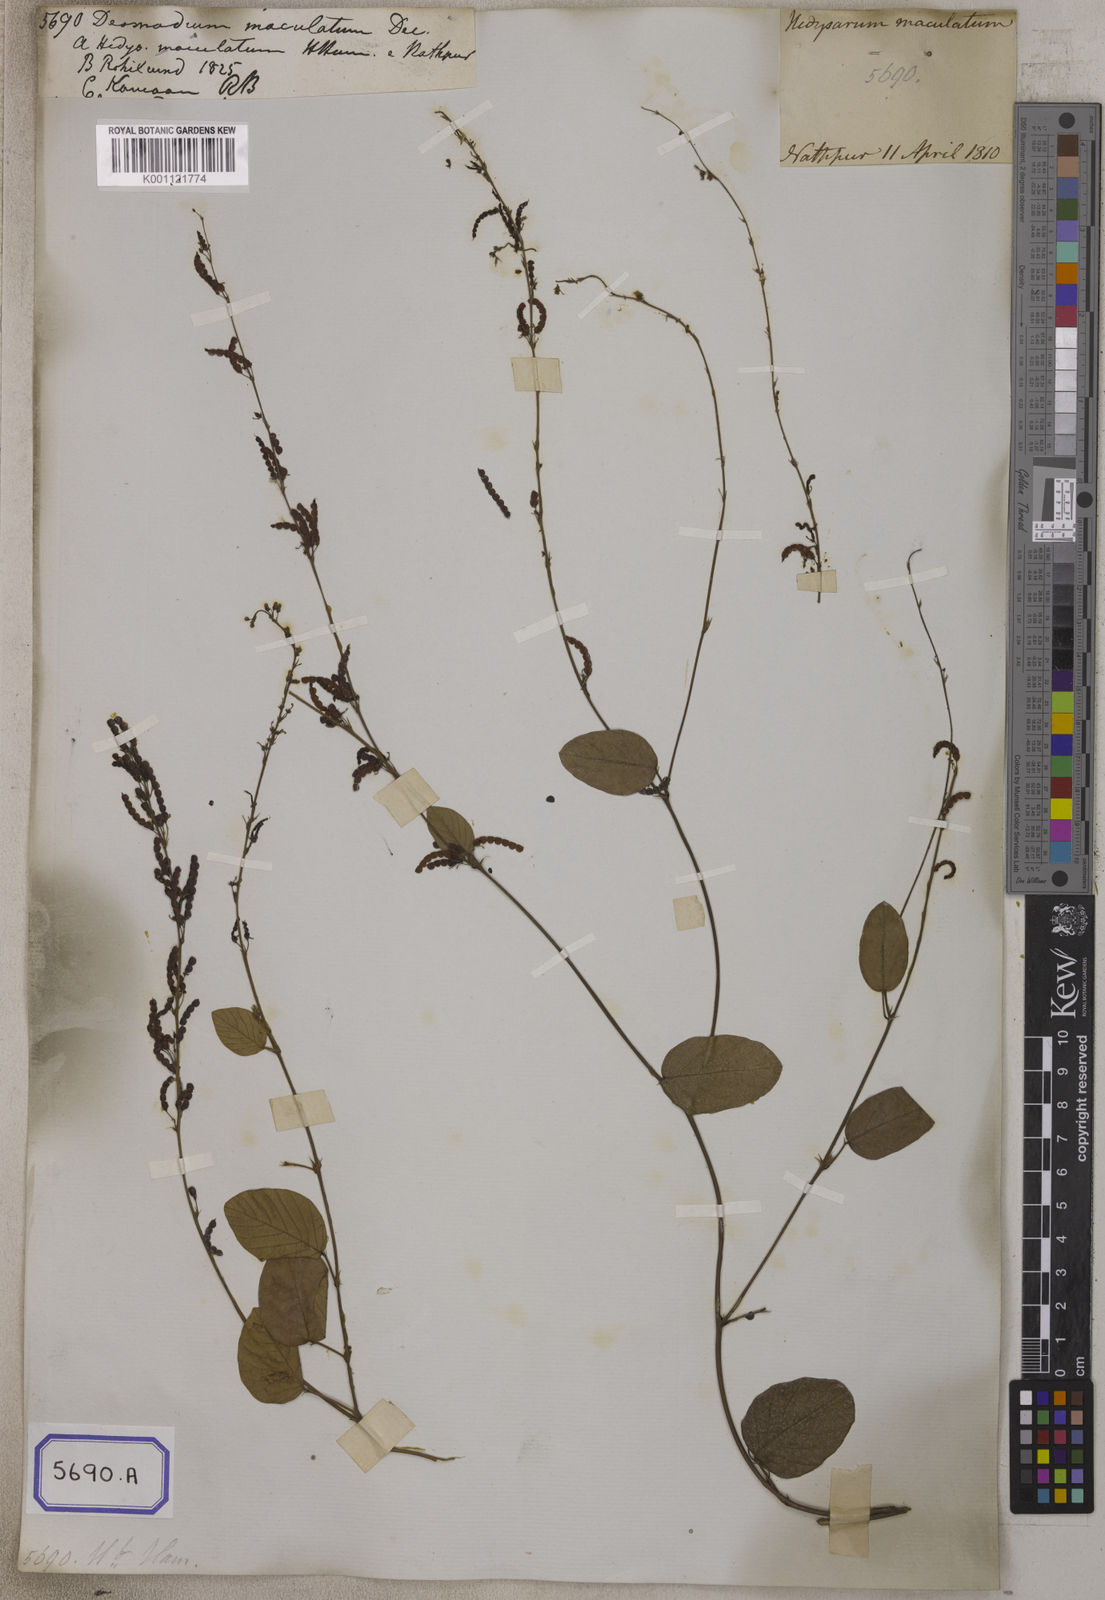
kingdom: Plantae
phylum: Tracheophyta
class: Magnoliopsida
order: Fabales
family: Fabaceae
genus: Pleurolobus
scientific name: Pleurolobus gangeticus
